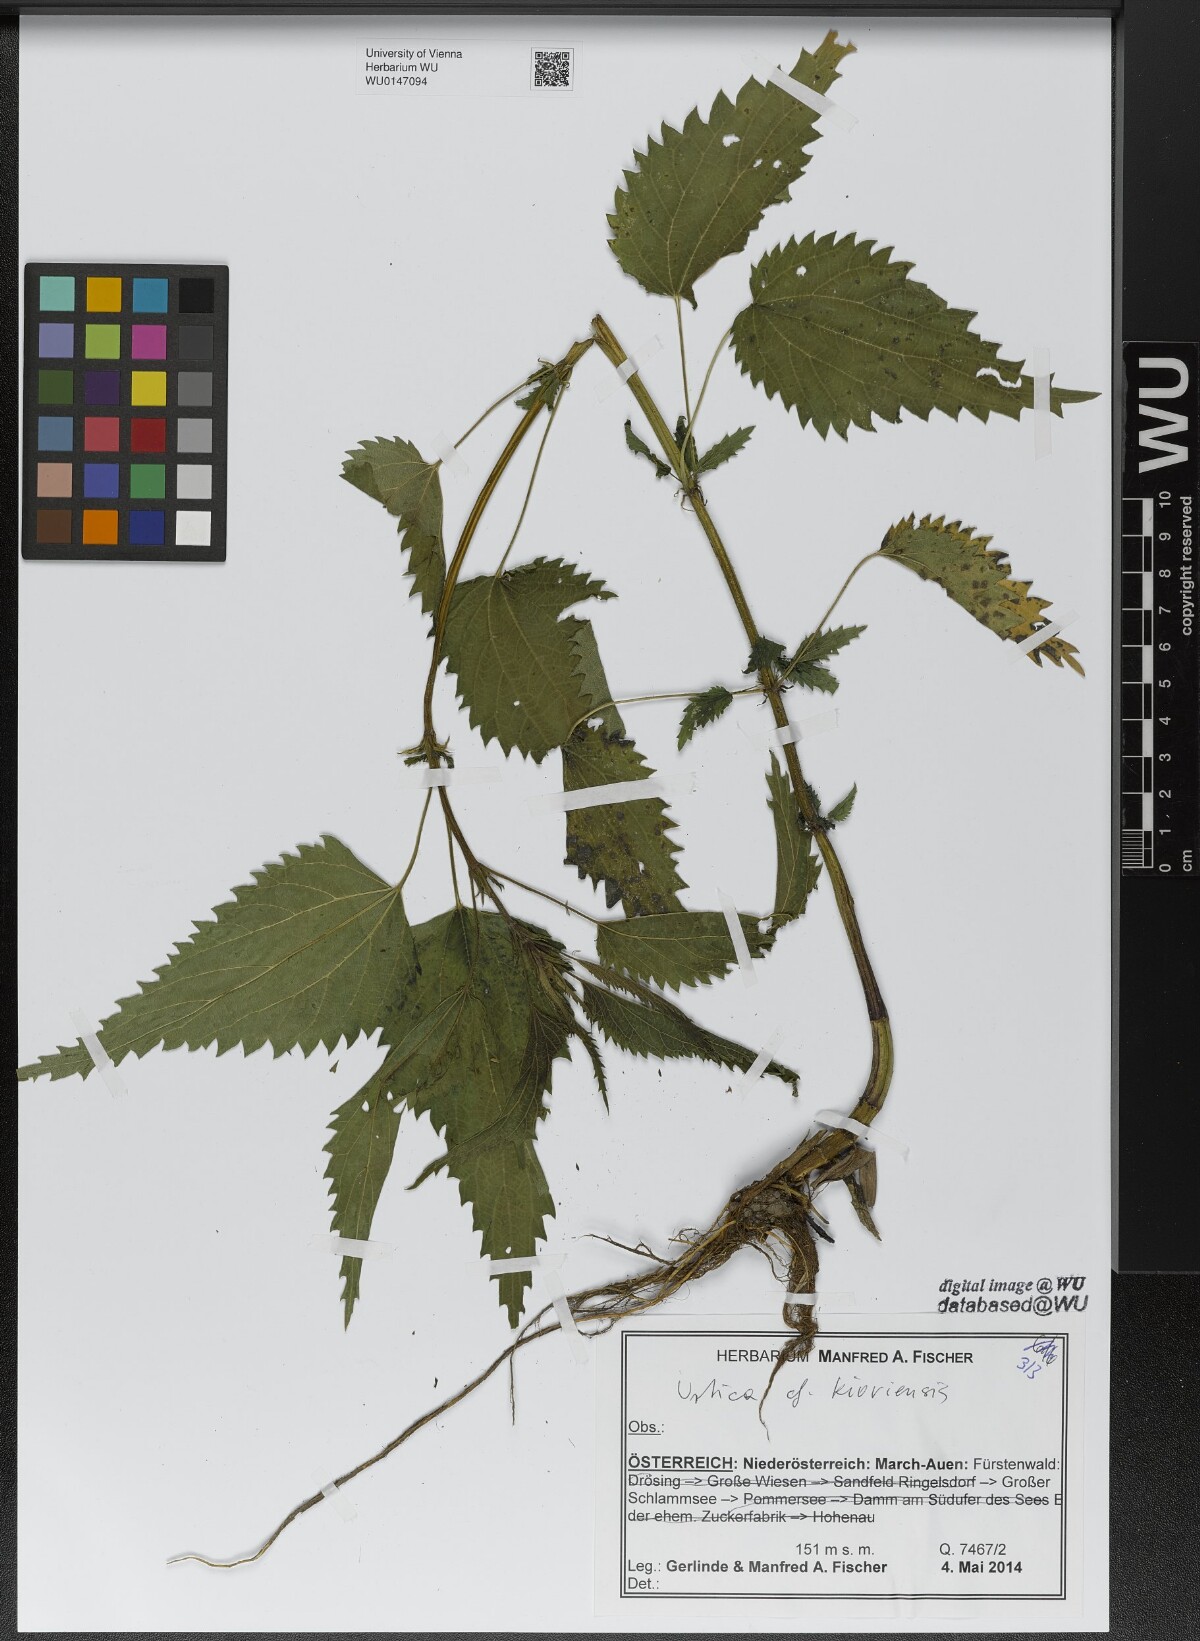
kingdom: Plantae
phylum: Tracheophyta
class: Magnoliopsida
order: Rosales
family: Urticaceae
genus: Urtica
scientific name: Urtica kioviensis
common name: Kievan nettle
